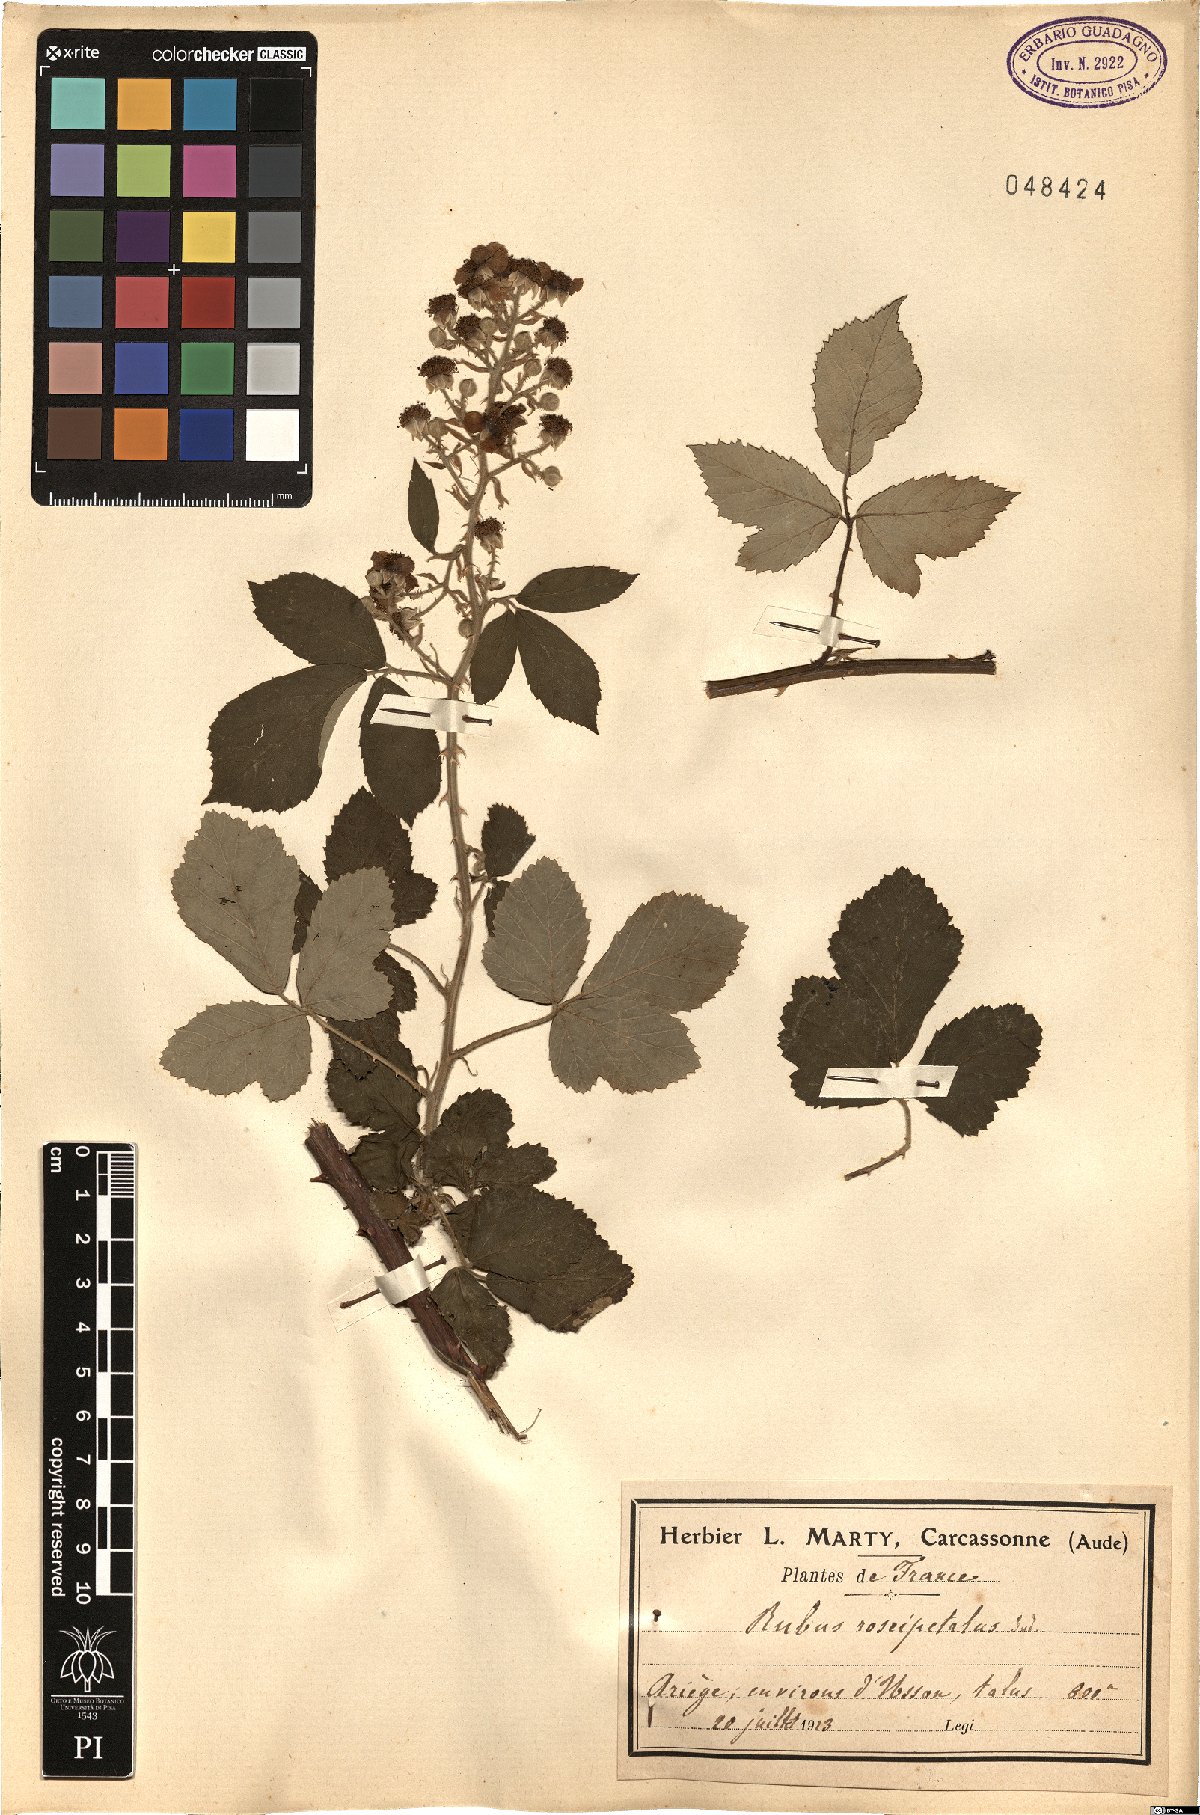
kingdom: Plantae
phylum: Tracheophyta
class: Magnoliopsida
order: Rosales
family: Rosaceae
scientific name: Rosaceae
